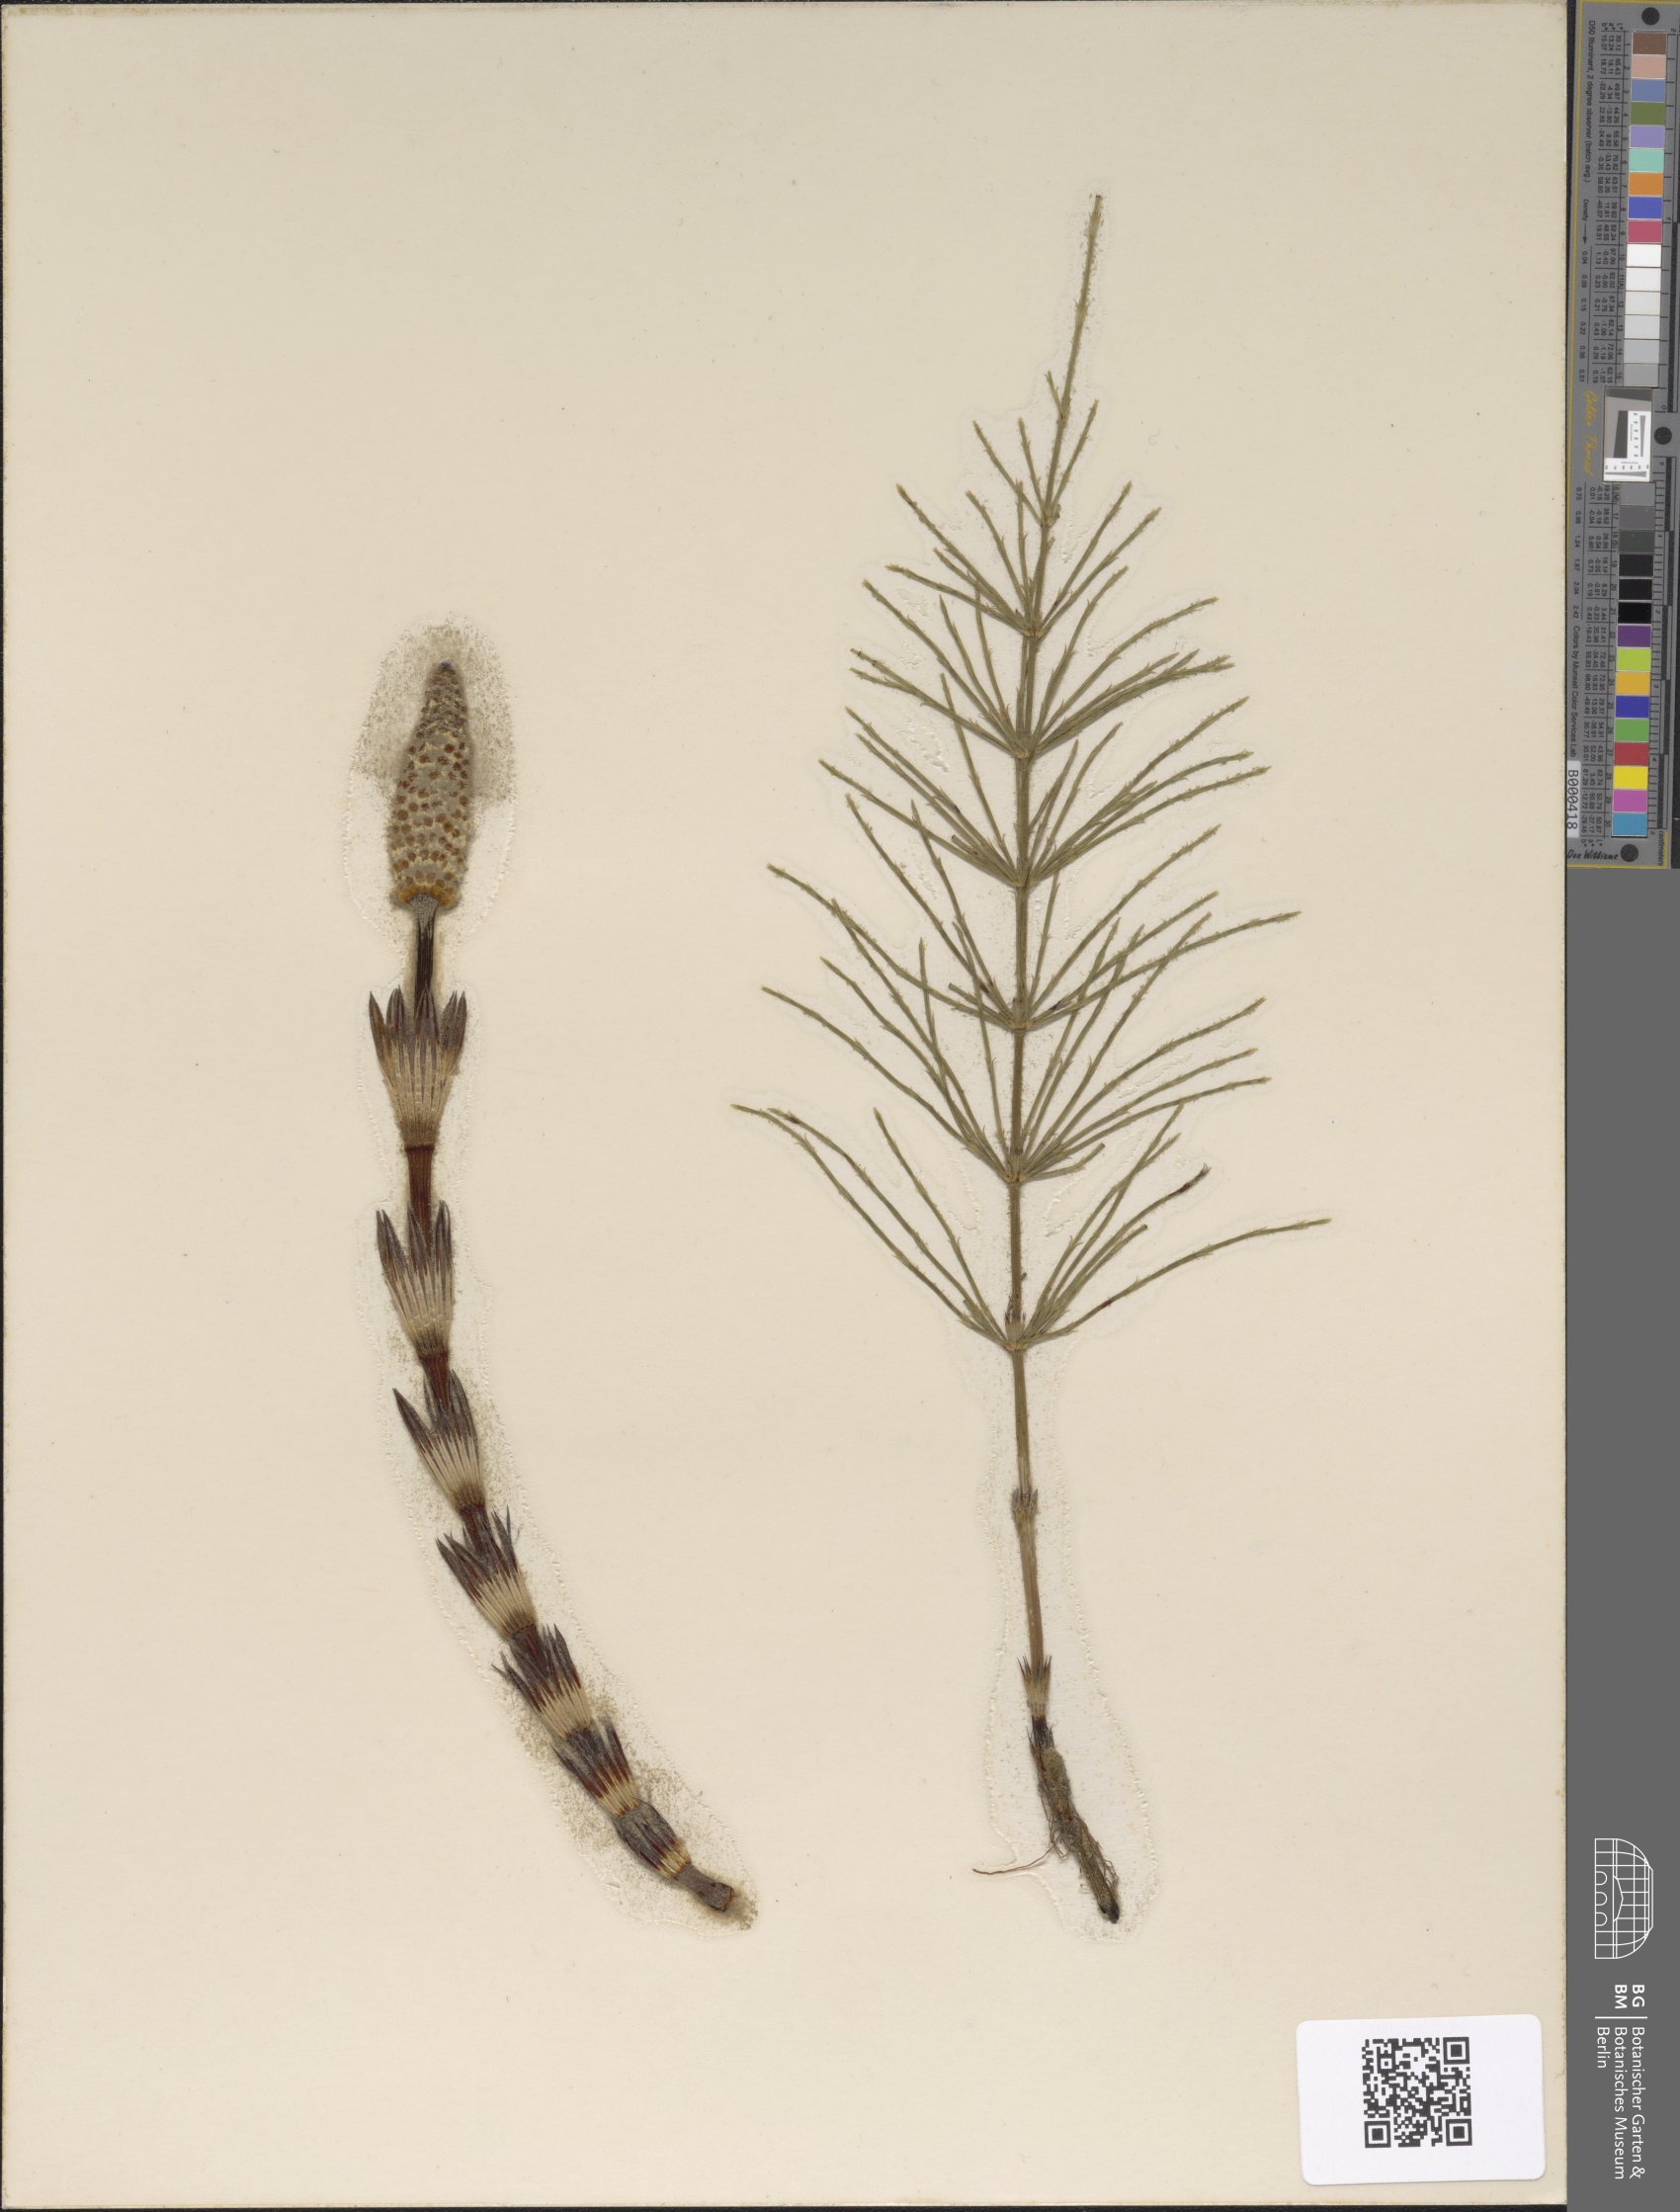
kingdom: Plantae
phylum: Tracheophyta
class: Polypodiopsida
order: Equisetales
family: Equisetaceae
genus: Equisetum
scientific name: Equisetum arvense
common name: Field horsetail
